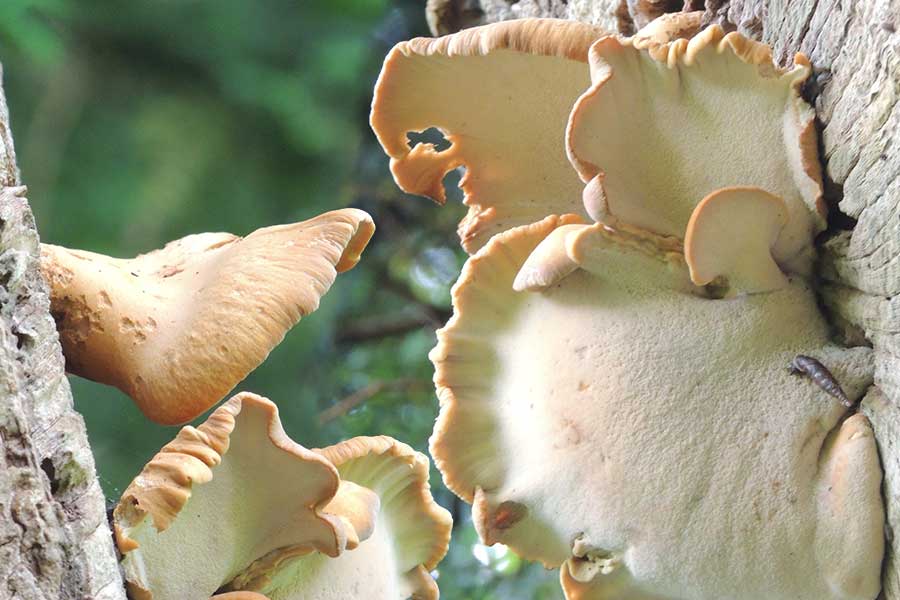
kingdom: Fungi
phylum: Basidiomycota
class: Agaricomycetes
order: Polyporales
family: Polyporaceae
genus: Cerioporus
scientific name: Cerioporus varius
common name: foranderlig stilkporesvamp
